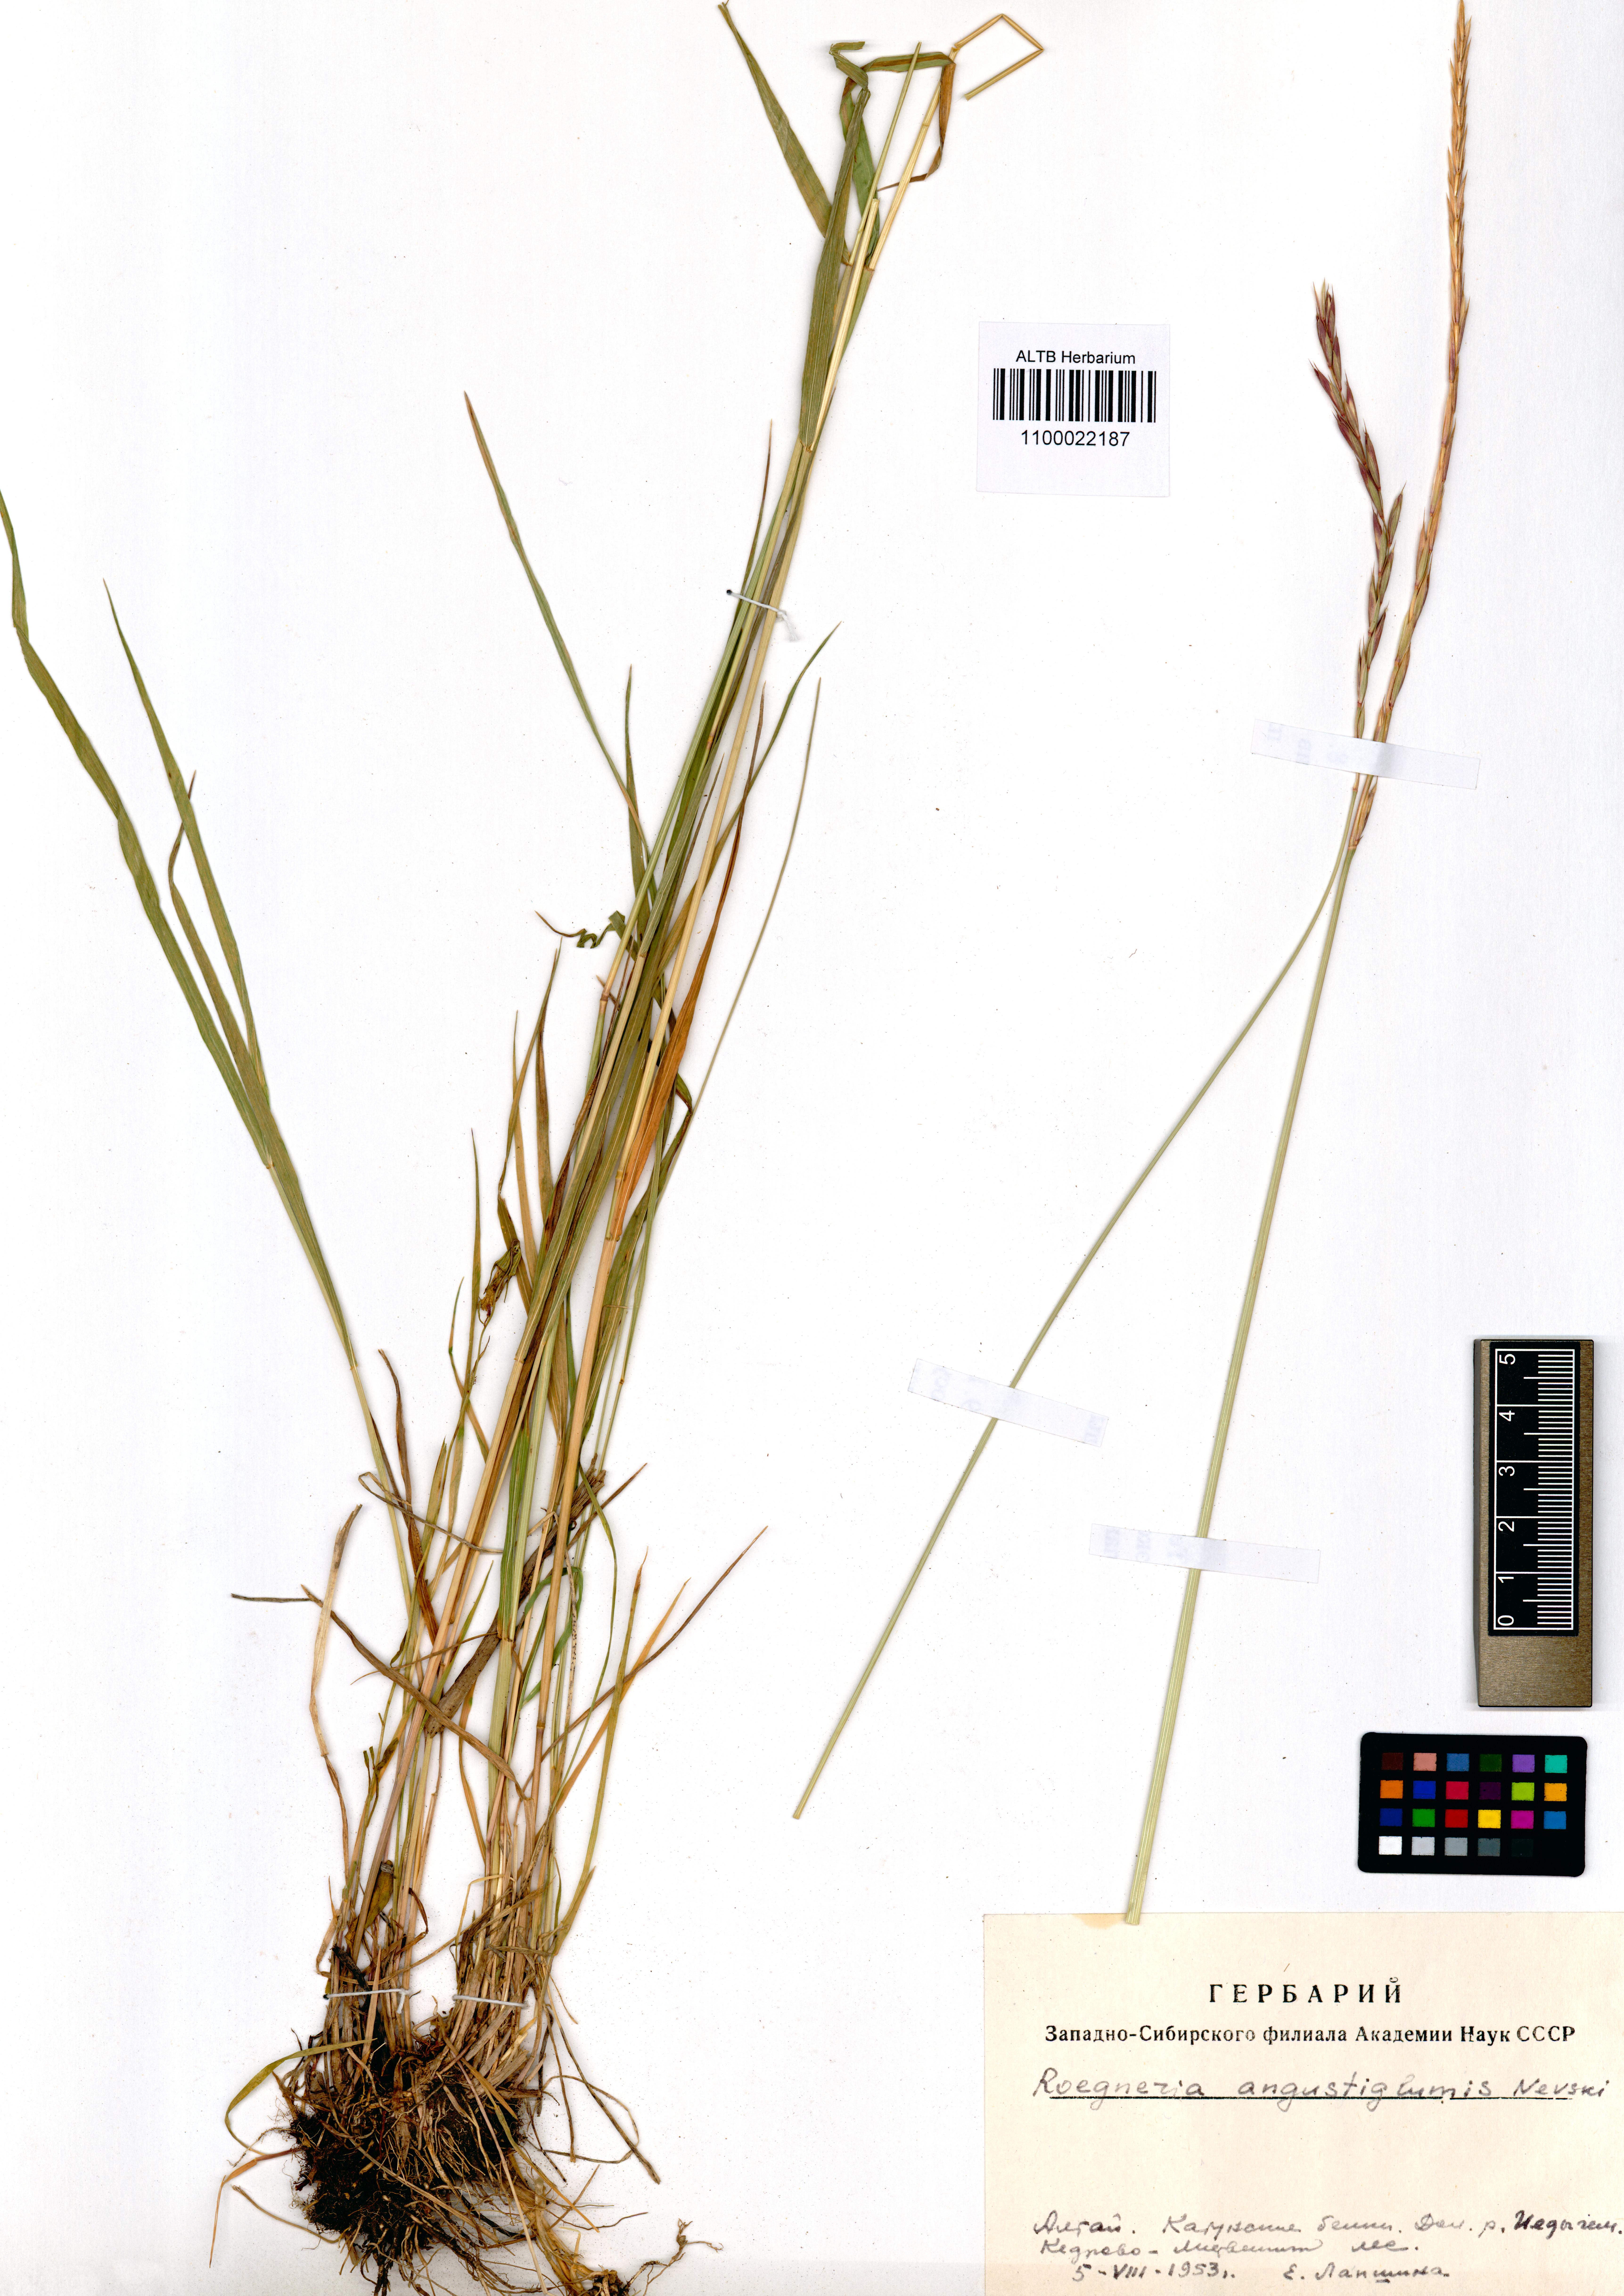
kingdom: Plantae
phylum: Tracheophyta
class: Liliopsida
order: Poales
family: Poaceae
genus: Elymus
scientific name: Elymus mutabilis
